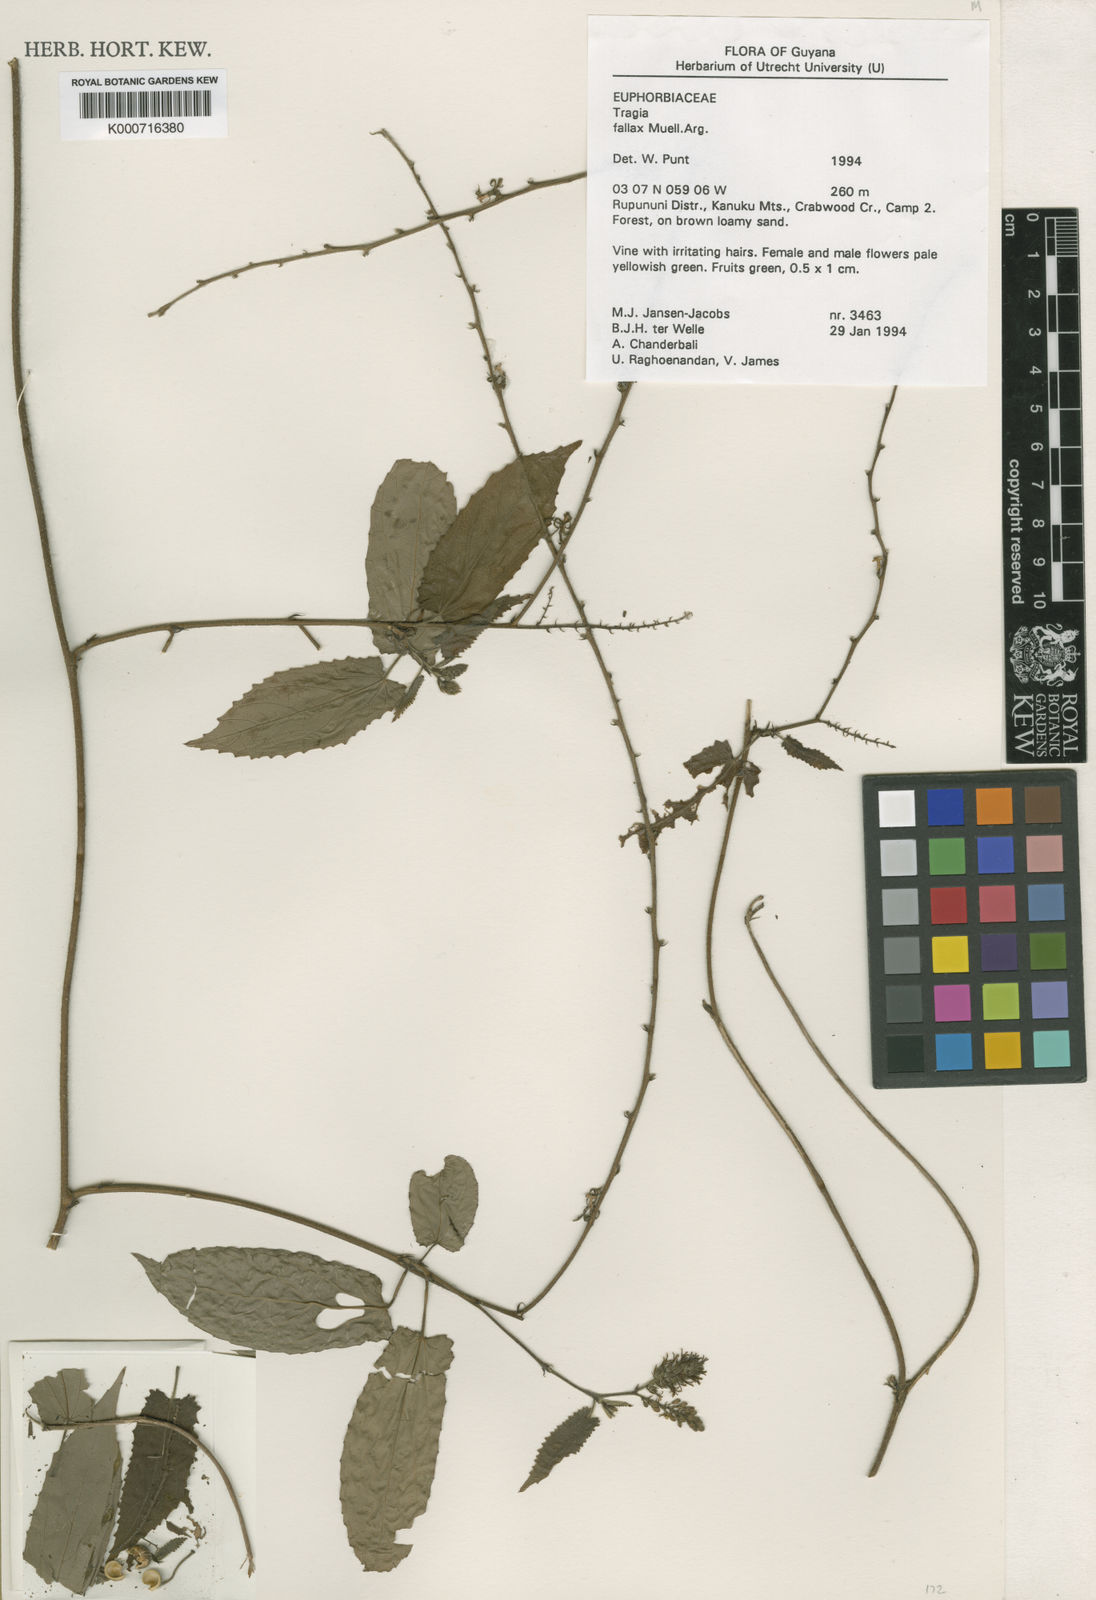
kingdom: Plantae
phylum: Tracheophyta
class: Magnoliopsida
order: Malpighiales
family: Euphorbiaceae
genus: Bia
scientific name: Bia
